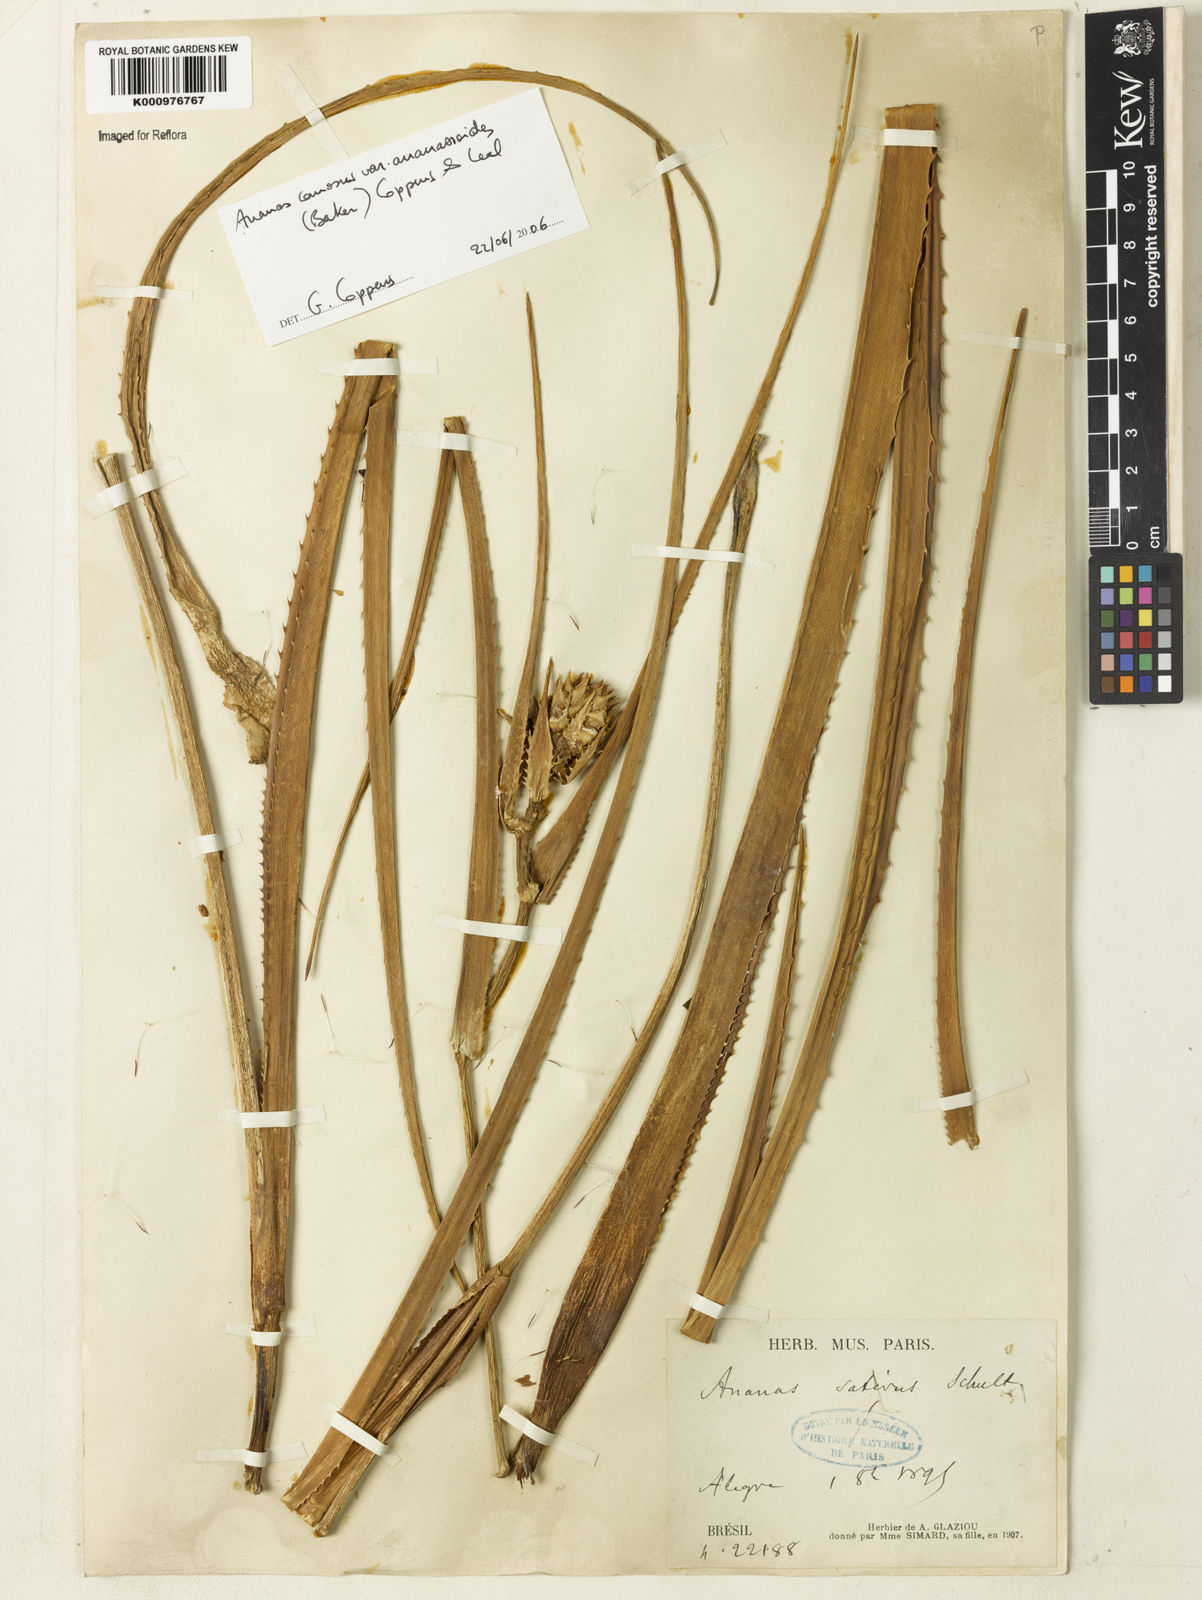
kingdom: Plantae
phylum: Tracheophyta
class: Liliopsida
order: Poales
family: Bromeliaceae
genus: Ananas
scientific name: Ananas comosus
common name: Pineapple
